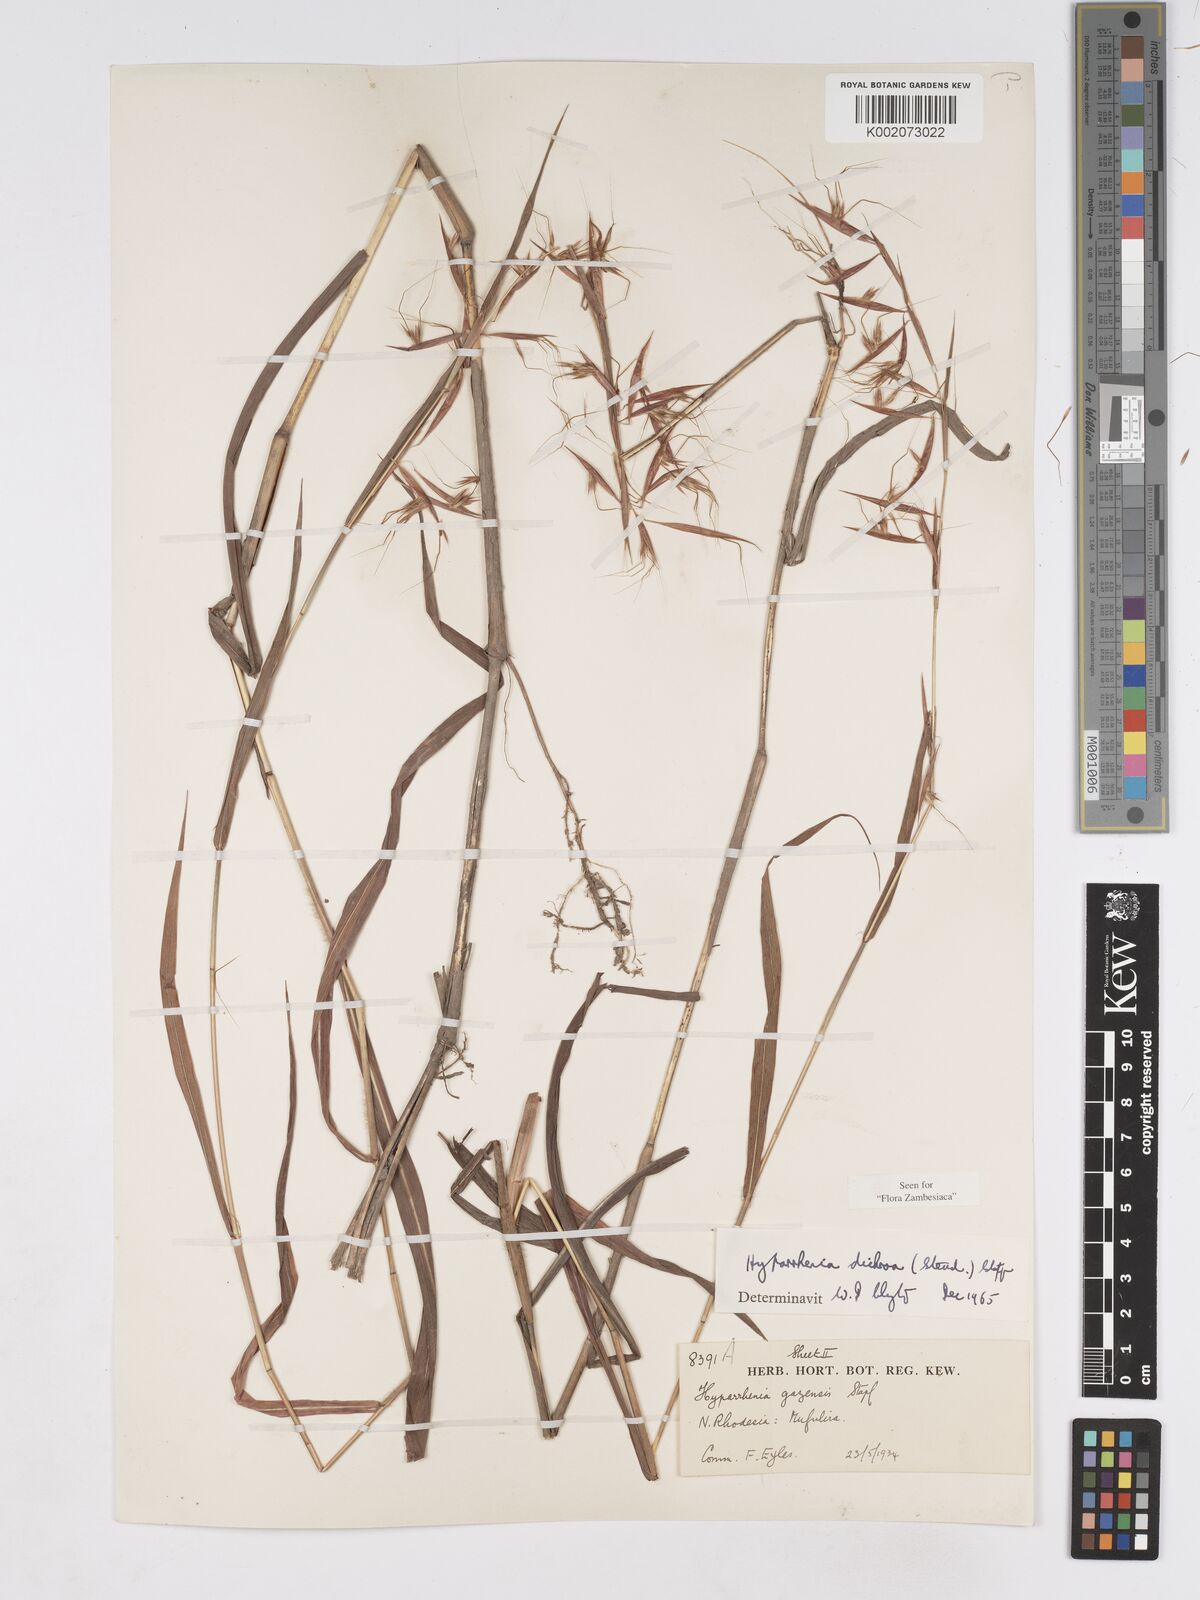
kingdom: Plantae
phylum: Tracheophyta
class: Liliopsida
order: Poales
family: Poaceae
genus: Hyparrhenia
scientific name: Hyparrhenia dichroa
